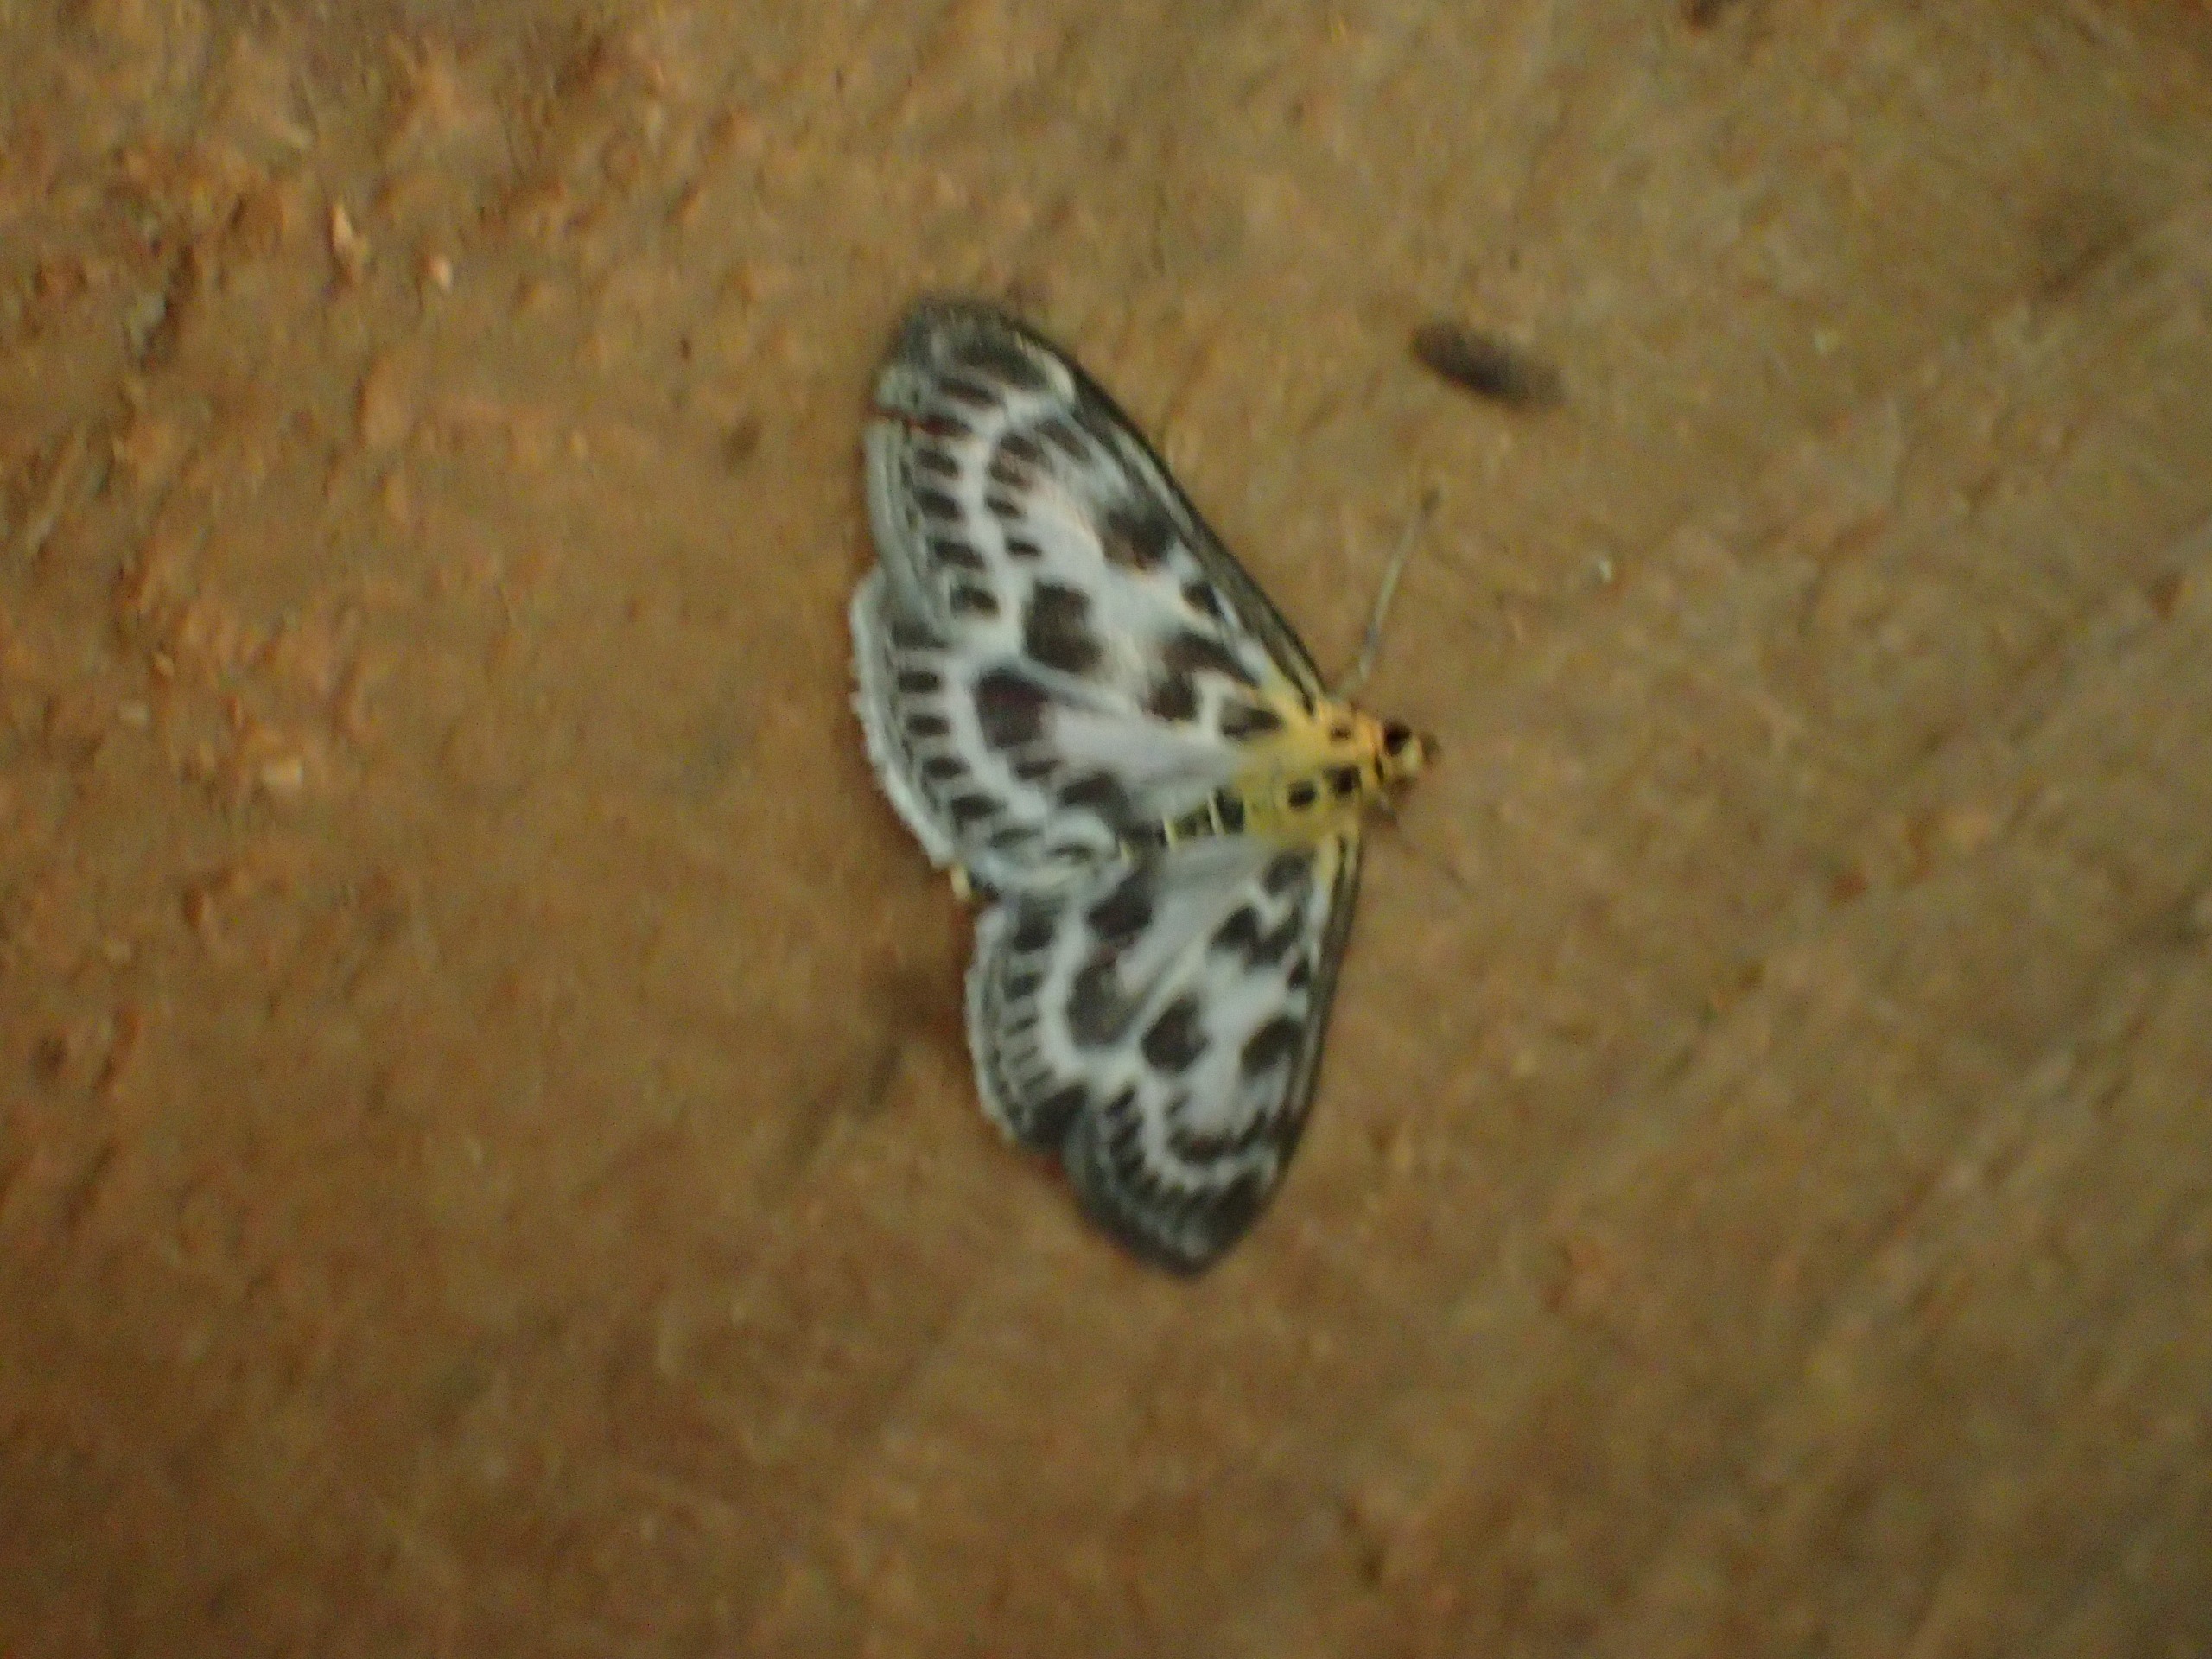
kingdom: Animalia
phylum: Arthropoda
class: Insecta
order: Lepidoptera
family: Crambidae
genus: Anania
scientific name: Anania hortulata
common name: Nældehalvmøl
